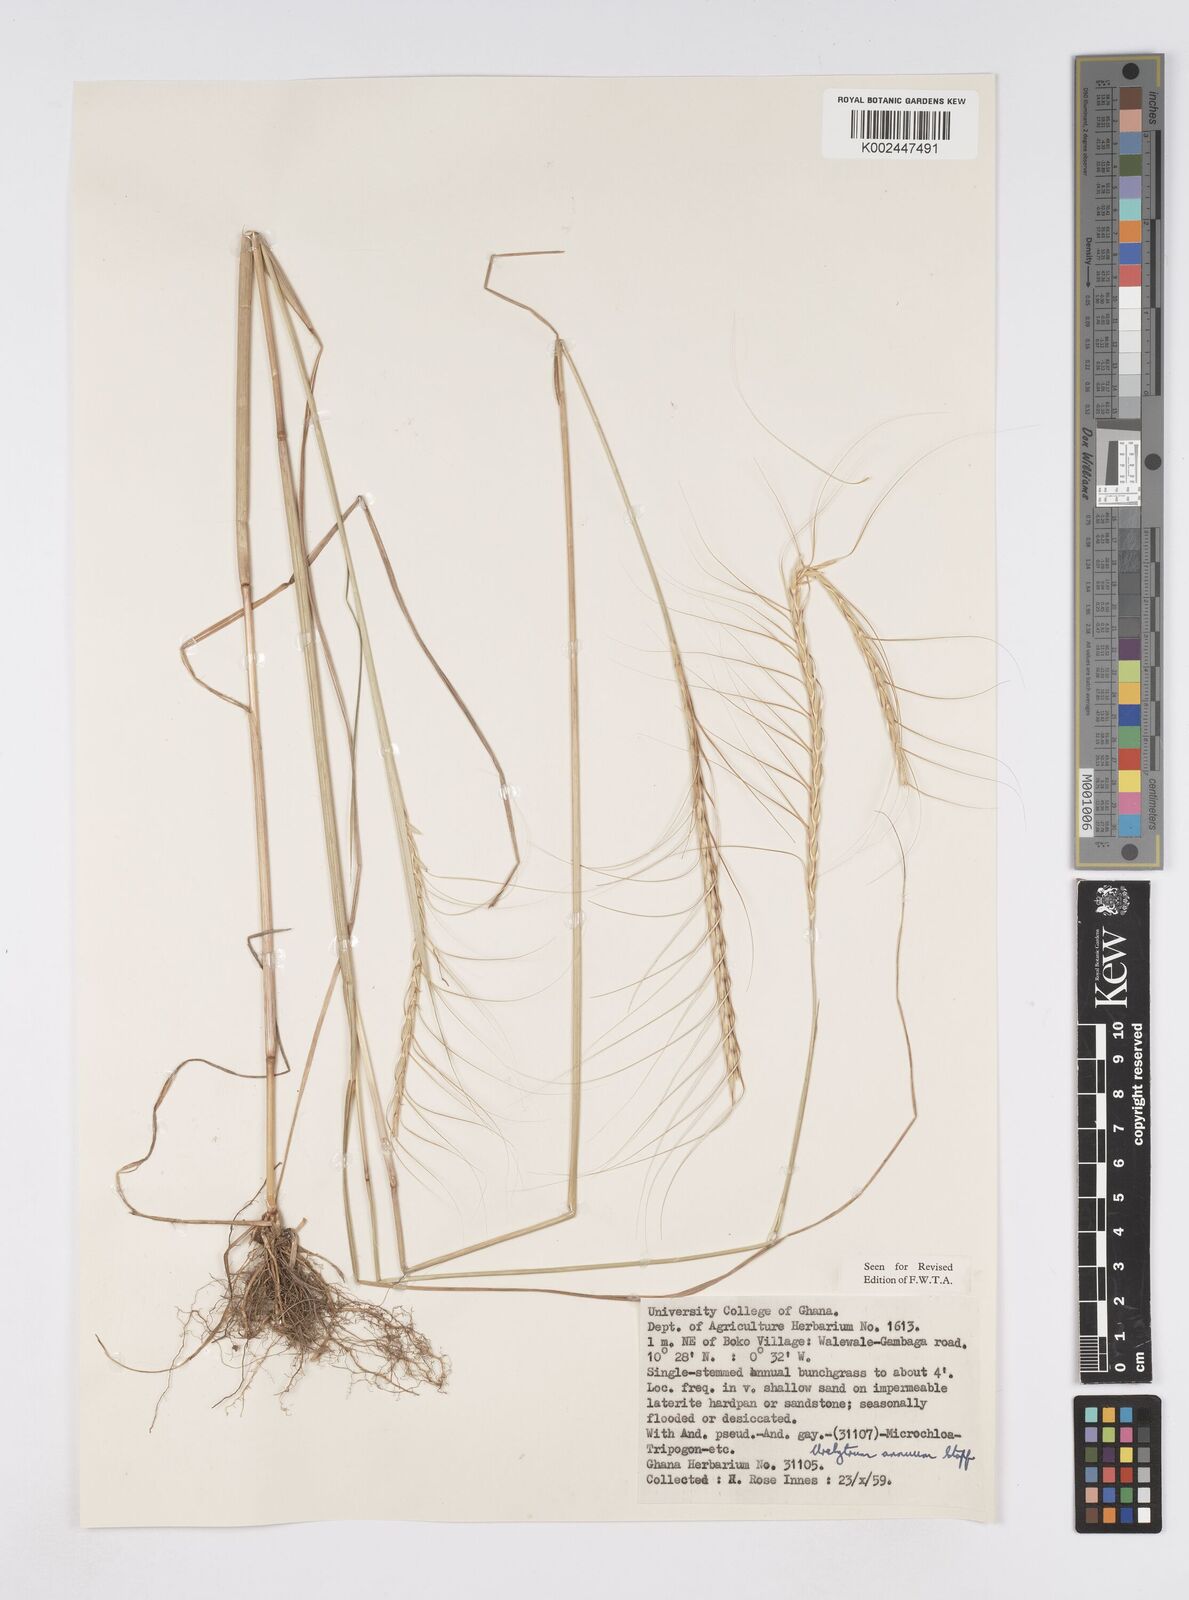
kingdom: Plantae
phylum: Tracheophyta
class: Liliopsida
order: Poales
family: Poaceae
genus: Urelytrum
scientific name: Urelytrum annuum
